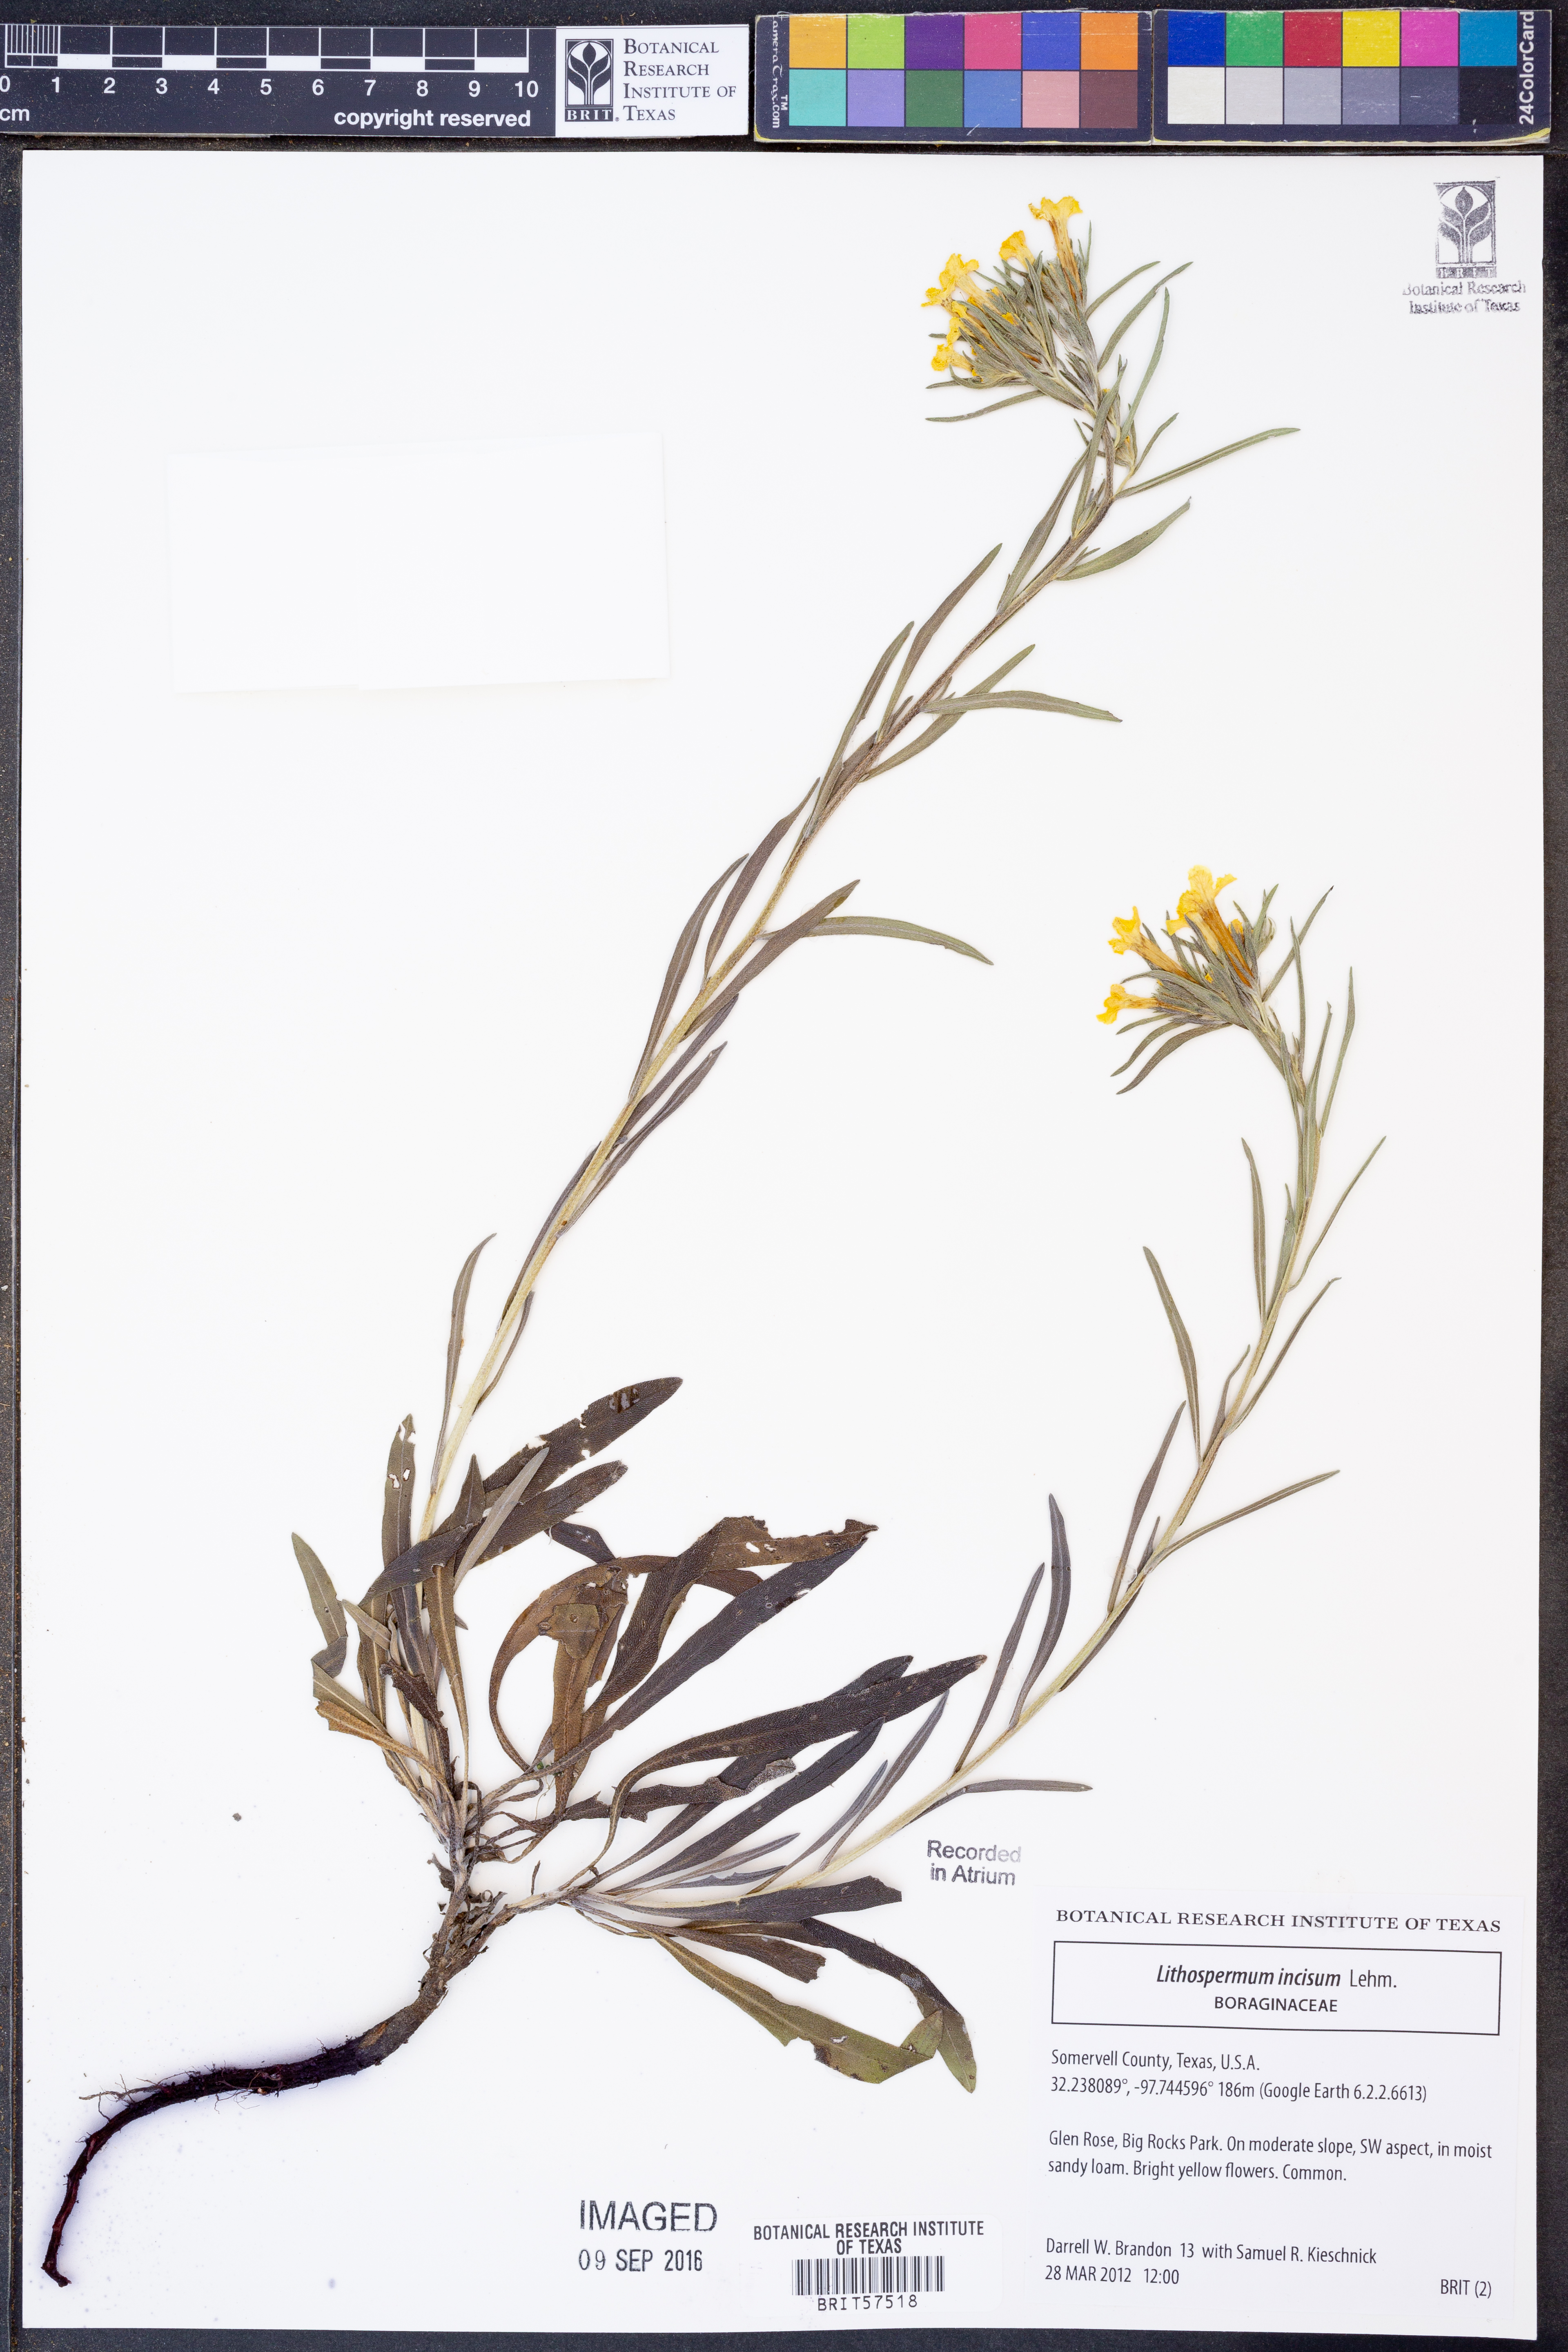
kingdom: Plantae
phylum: Tracheophyta
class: Magnoliopsida
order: Boraginales
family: Boraginaceae
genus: Lithospermum
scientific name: Lithospermum incisum
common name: Fringed gromwell
